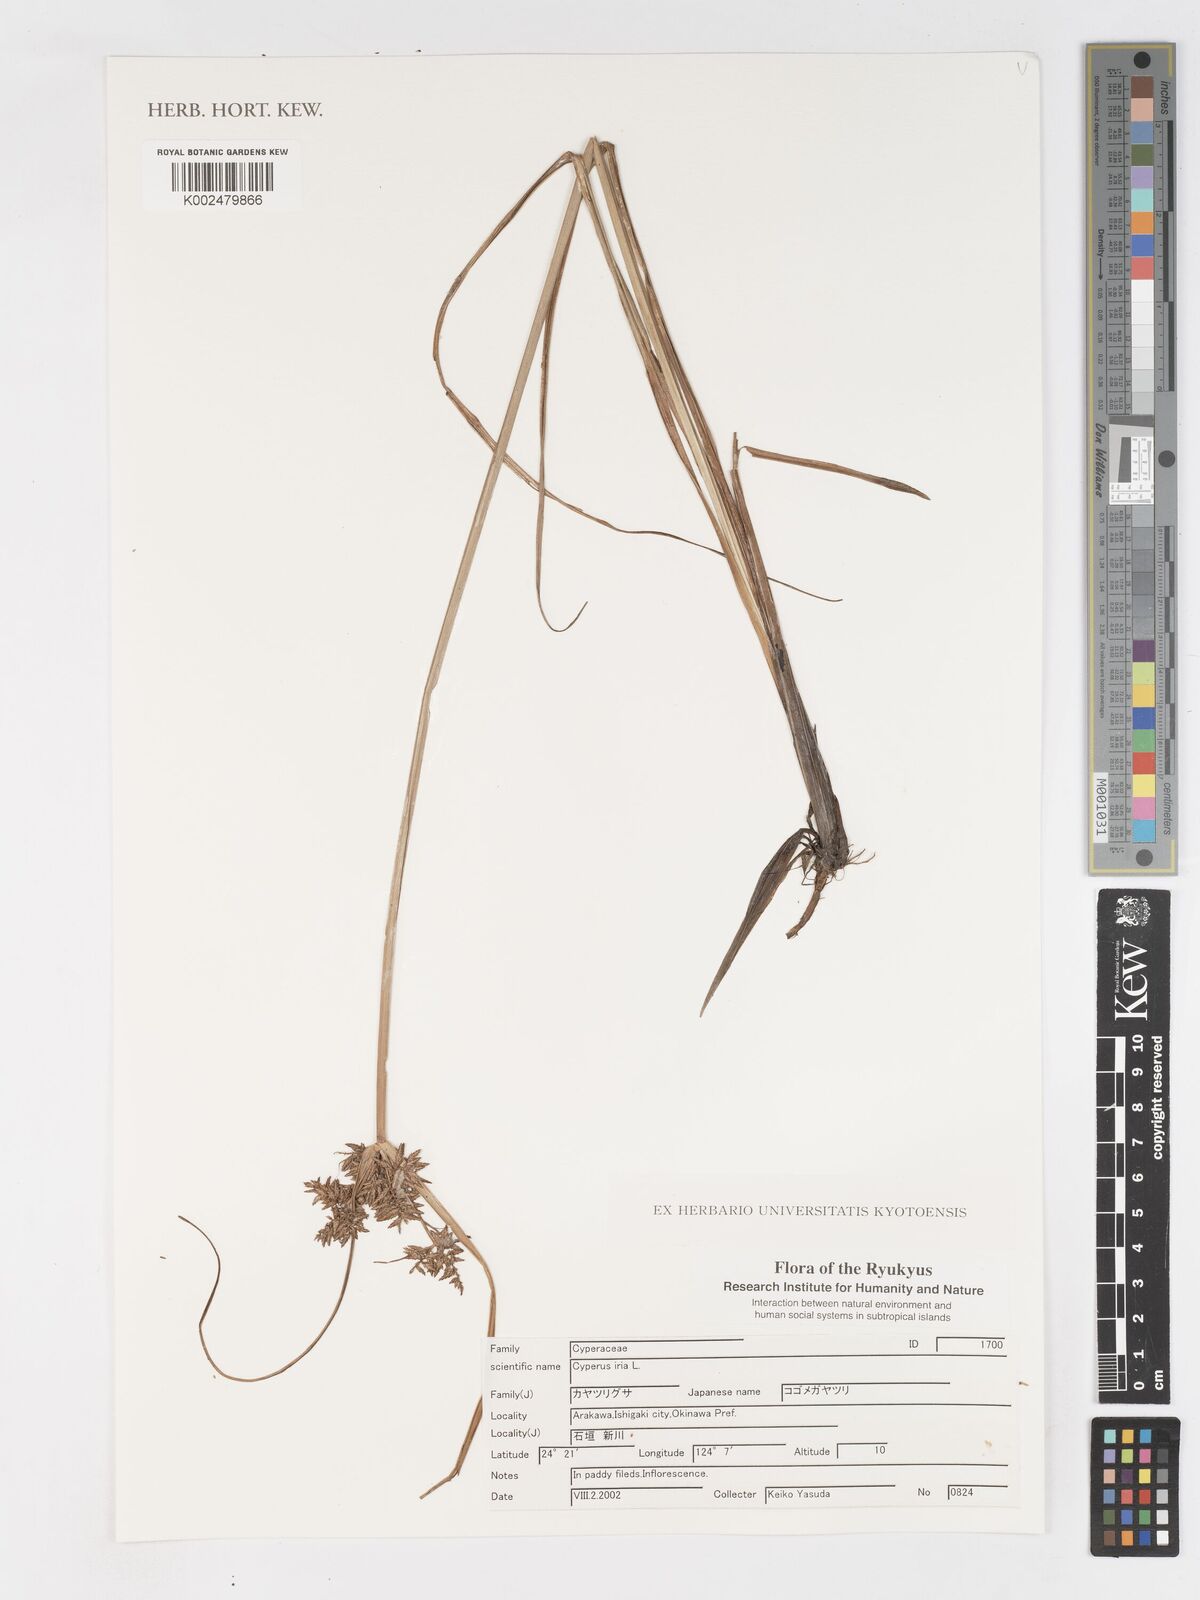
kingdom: Plantae
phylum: Tracheophyta
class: Liliopsida
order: Poales
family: Cyperaceae
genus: Cyperus
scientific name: Cyperus iria
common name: Ricefield flatsedge
